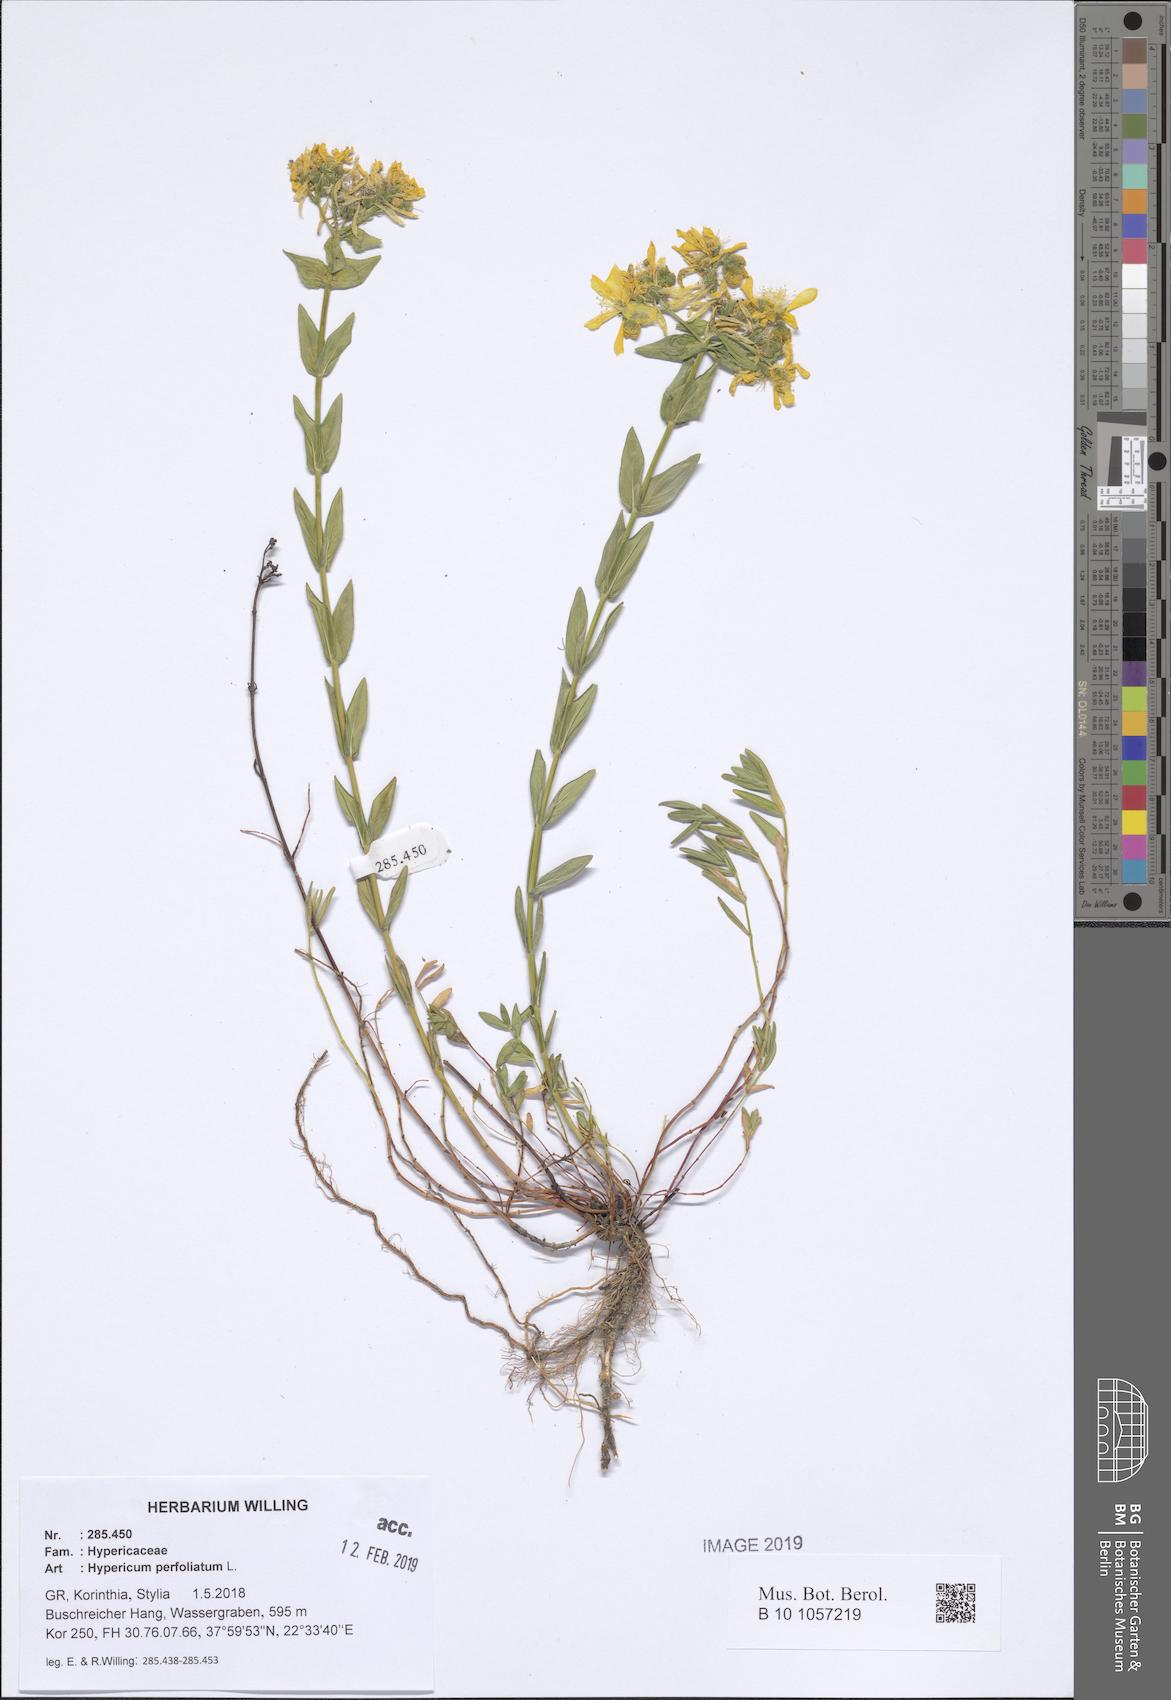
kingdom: Plantae
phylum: Tracheophyta
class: Magnoliopsida
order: Malpighiales
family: Hypericaceae
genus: Hypericum
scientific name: Hypericum perfoliatum
